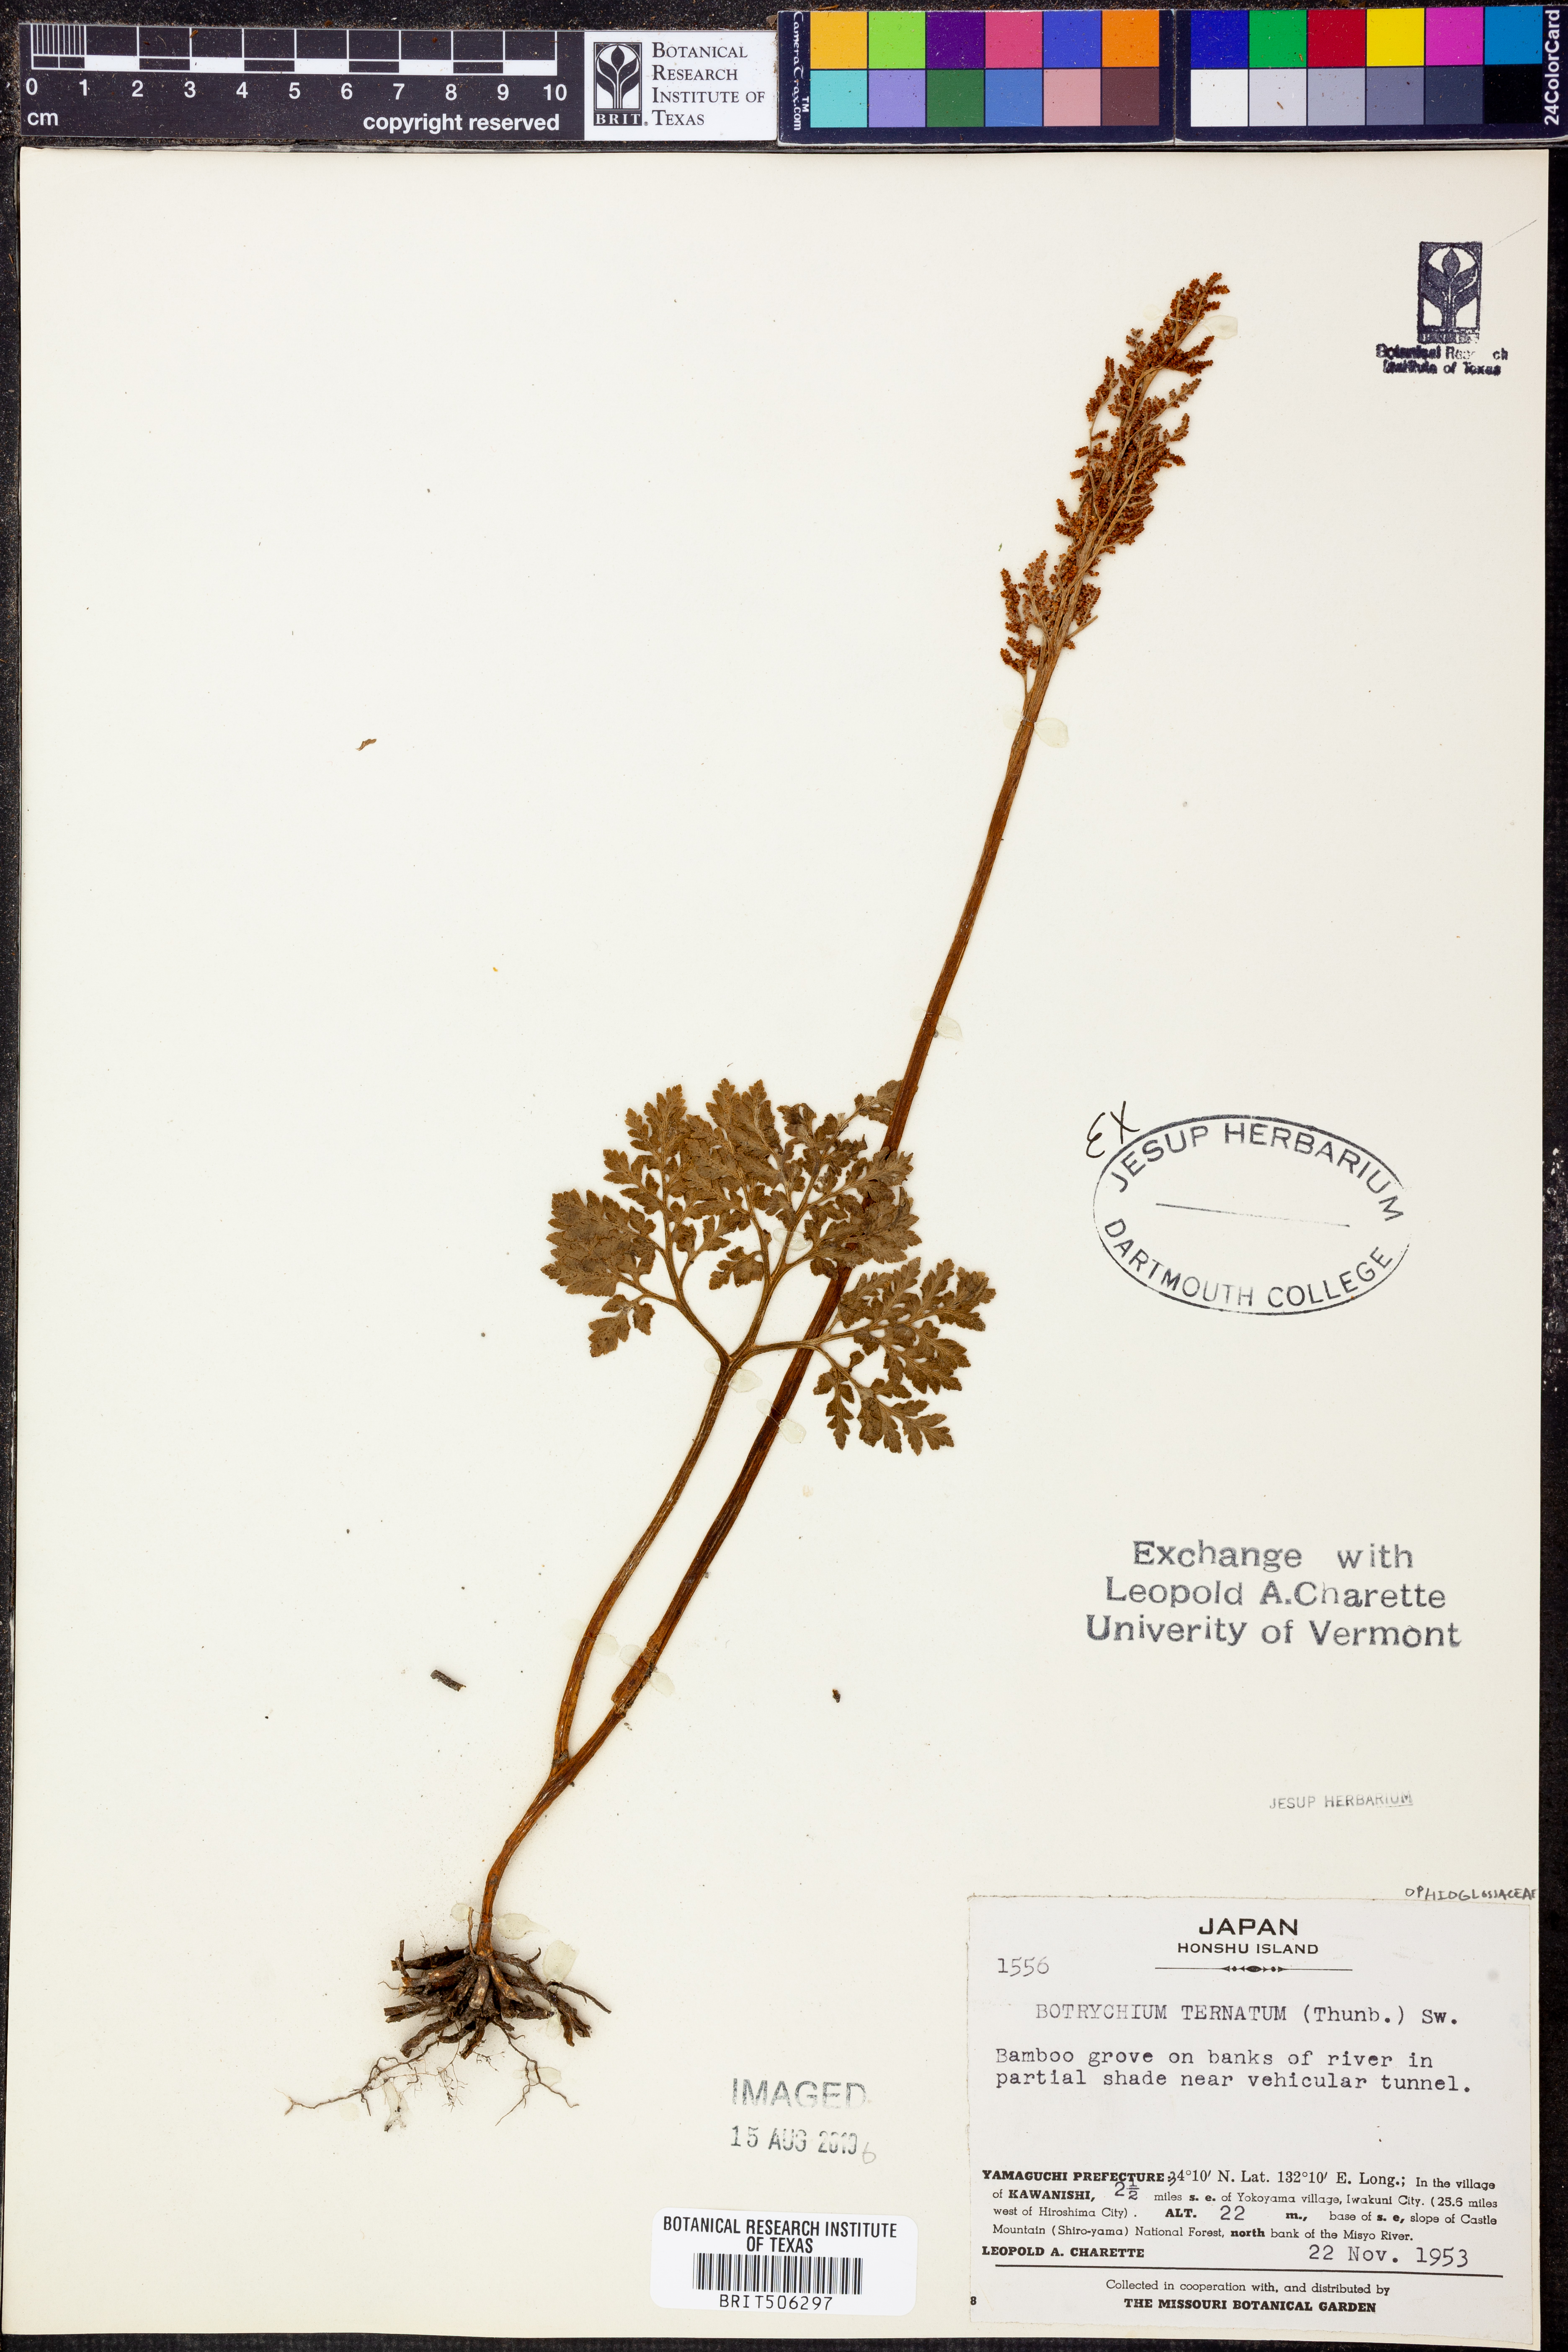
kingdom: Plantae
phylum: Tracheophyta
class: Polypodiopsida
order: Ophioglossales
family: Ophioglossaceae
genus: Sceptridium
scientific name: Sceptridium
